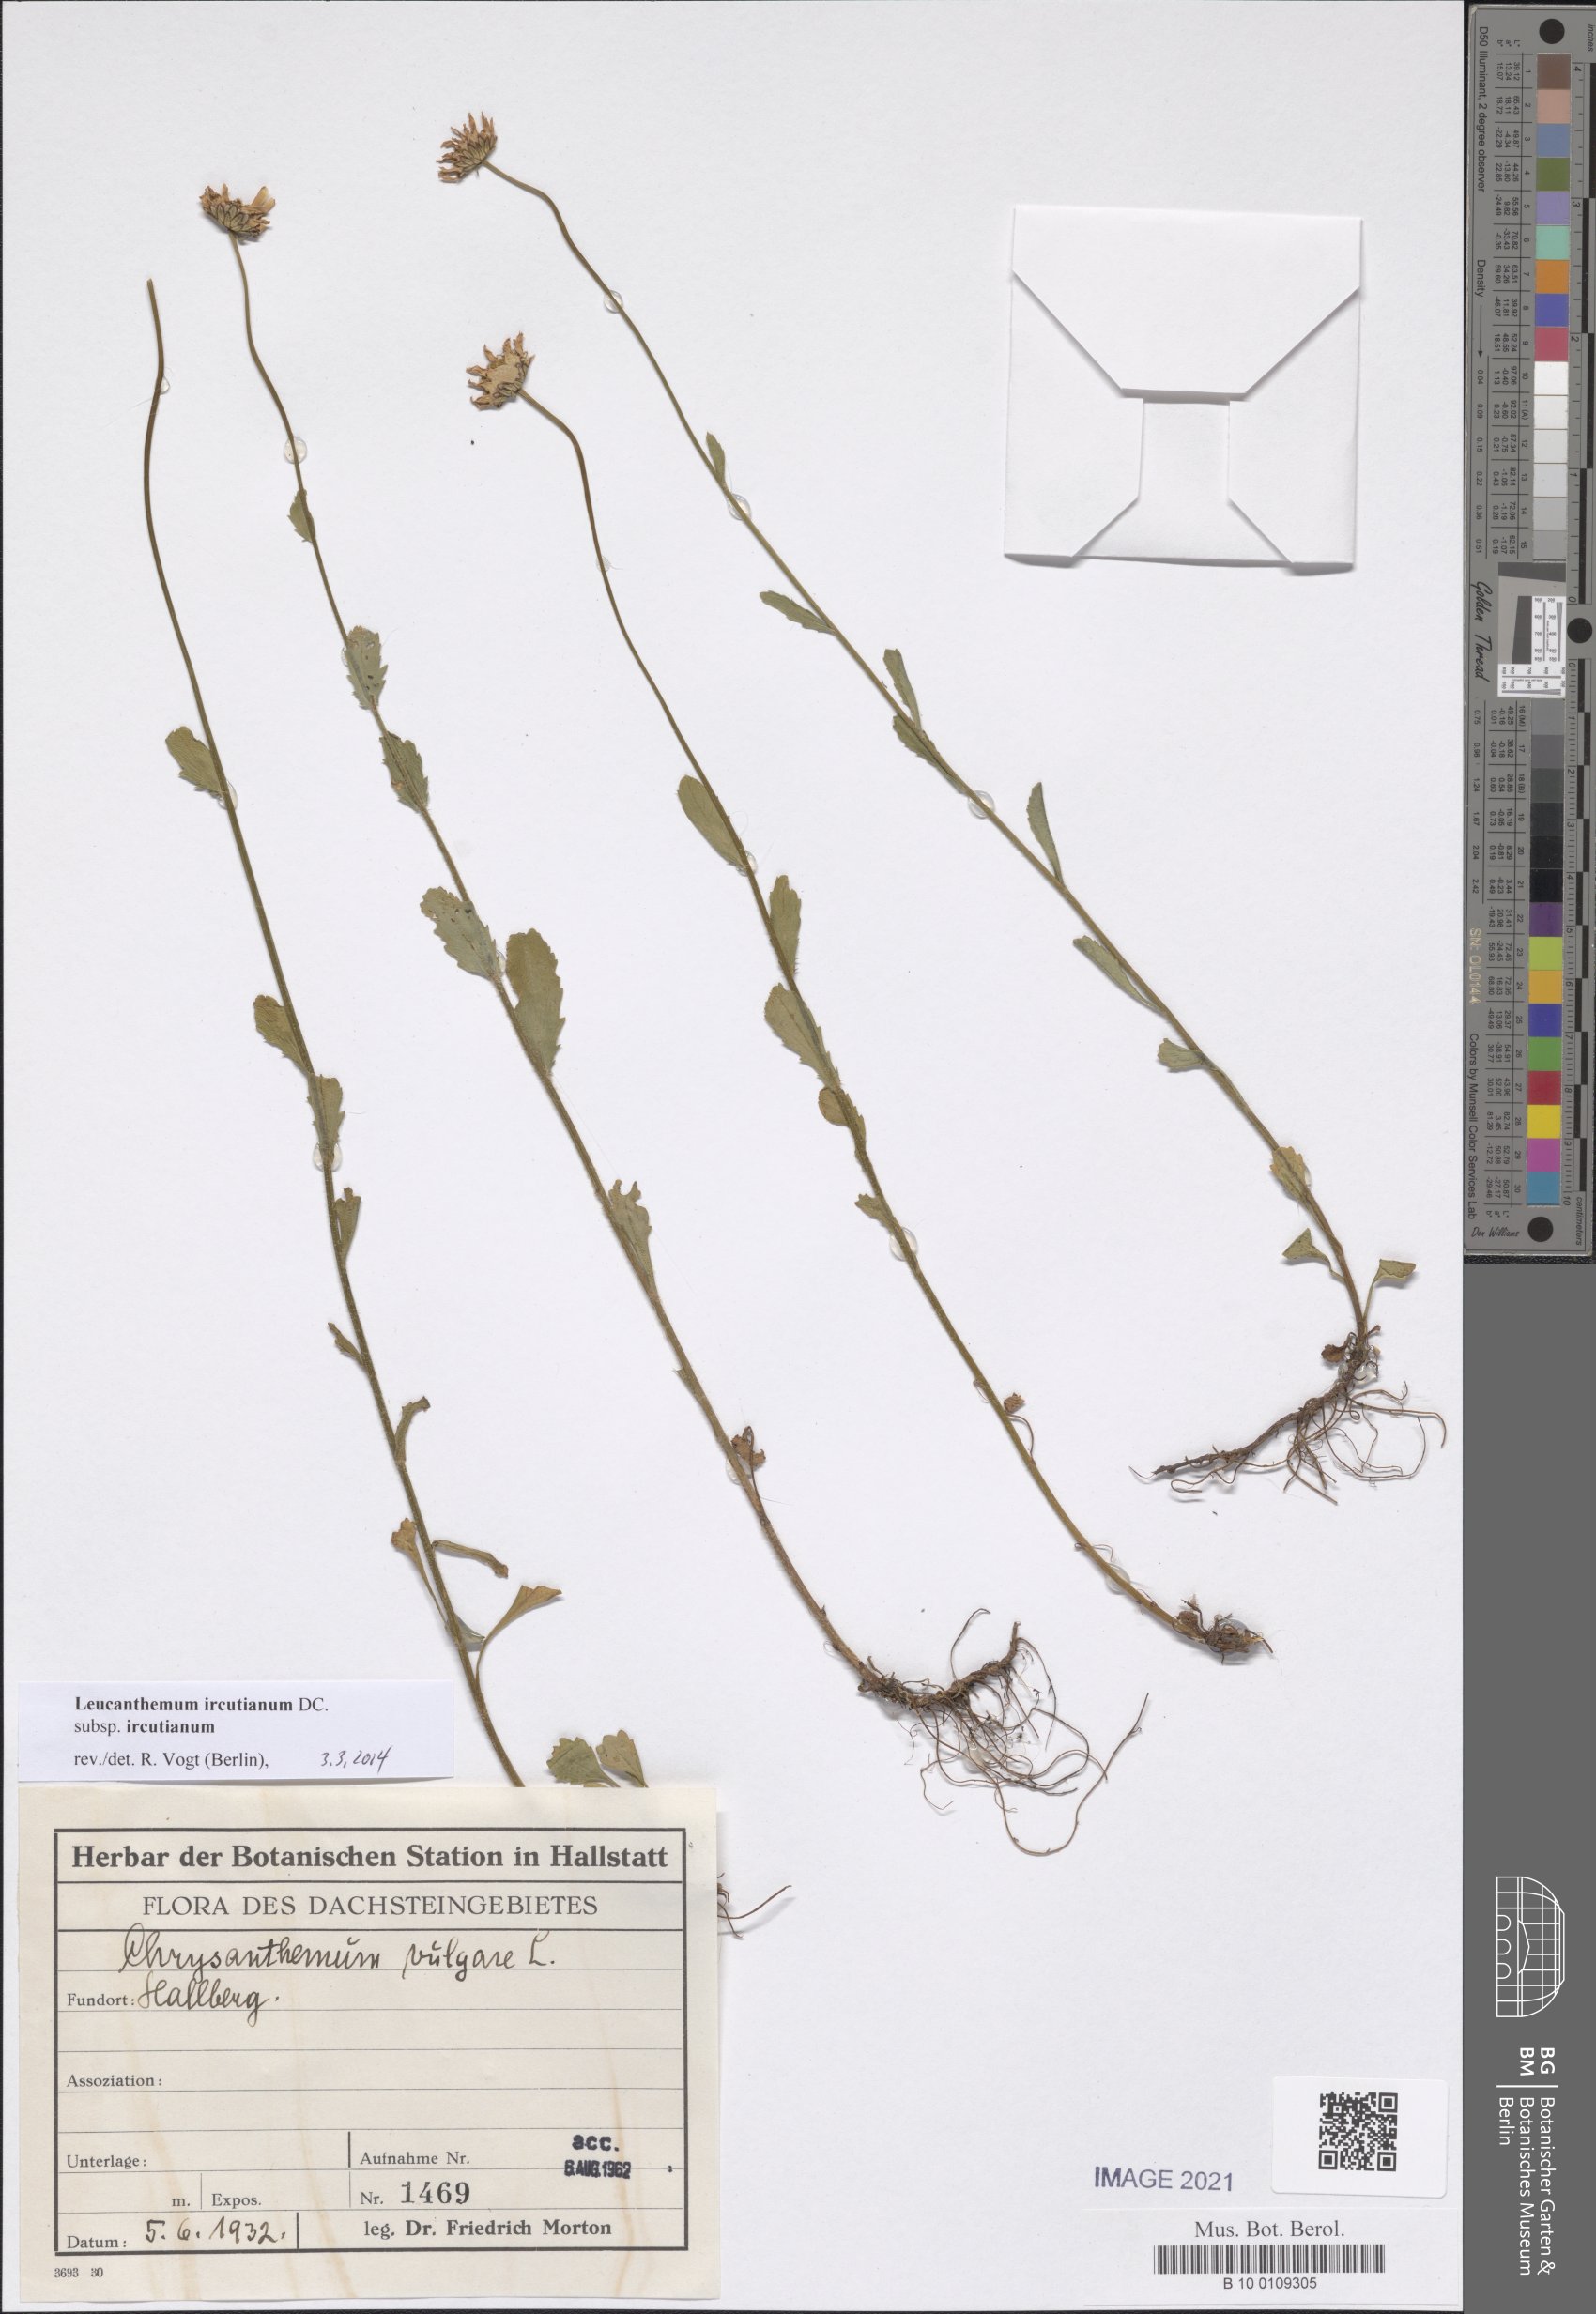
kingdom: Plantae
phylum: Tracheophyta
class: Magnoliopsida
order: Asterales
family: Asteraceae
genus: Leucanthemum
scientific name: Leucanthemum ircutianum
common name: Daisy
